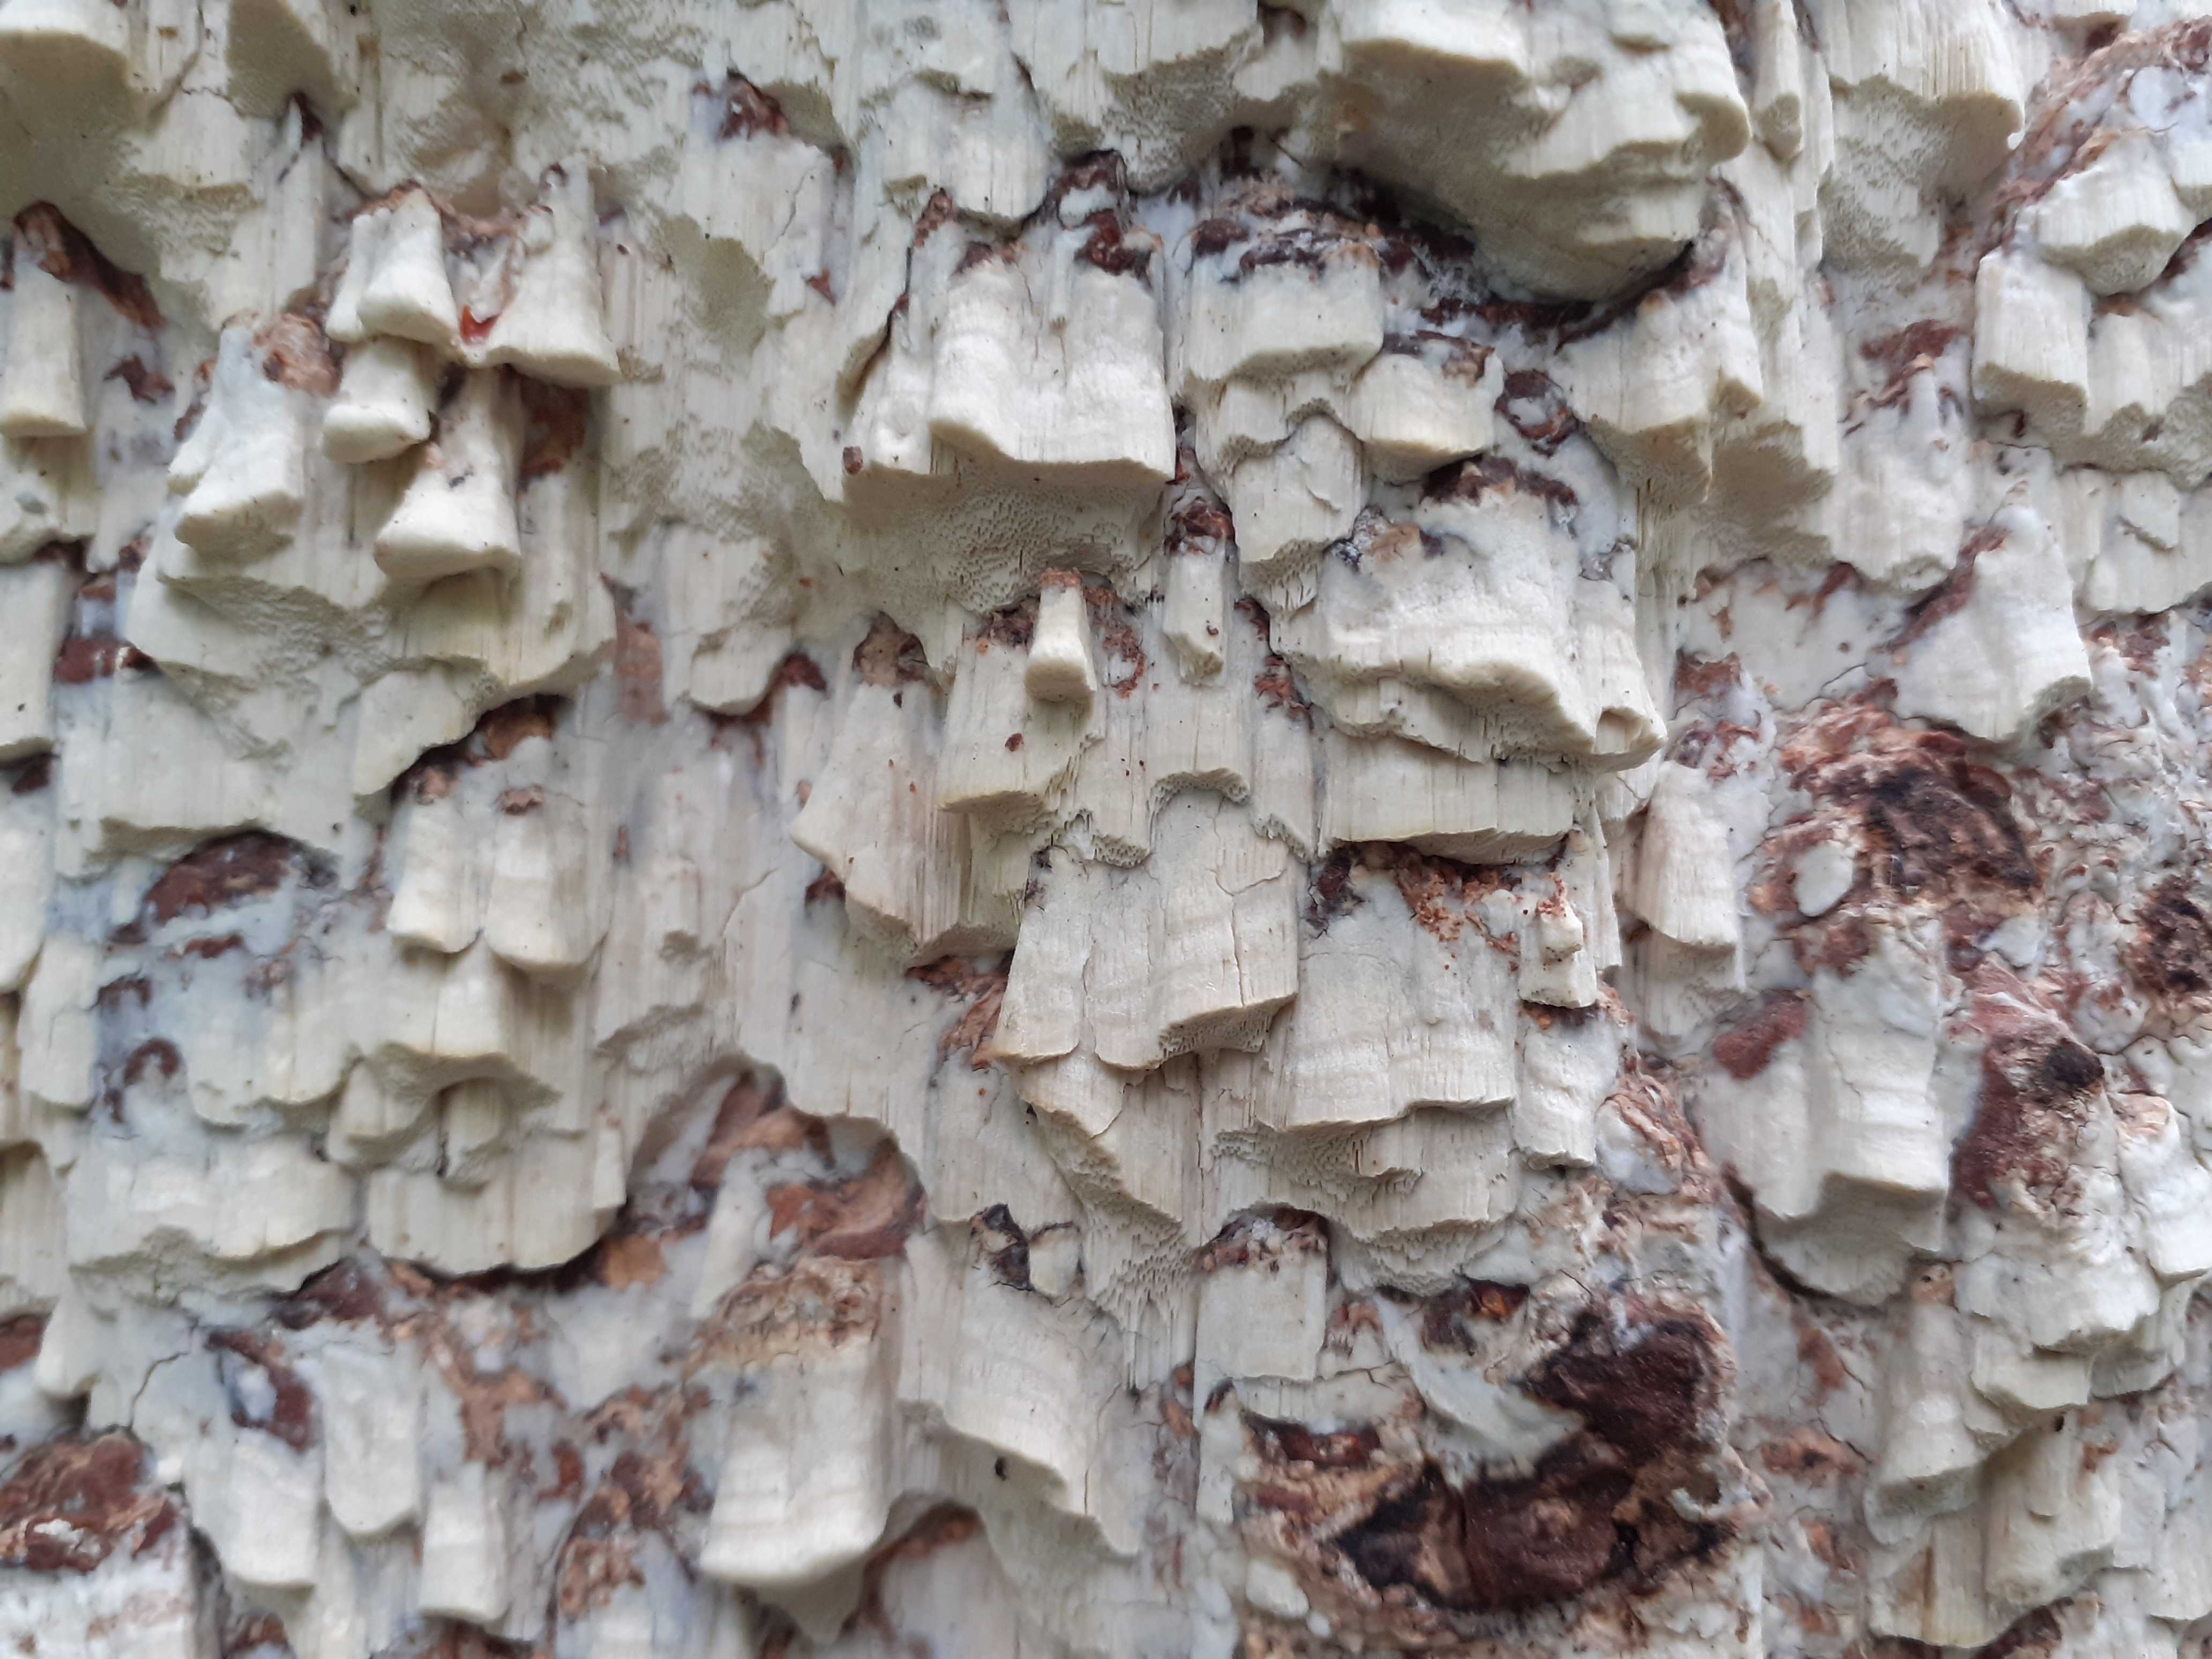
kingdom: Fungi
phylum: Basidiomycota
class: Agaricomycetes
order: Polyporales
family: Fomitopsidaceae
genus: Daedalea
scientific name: Daedalea xantha
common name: gul sejporesvamp
